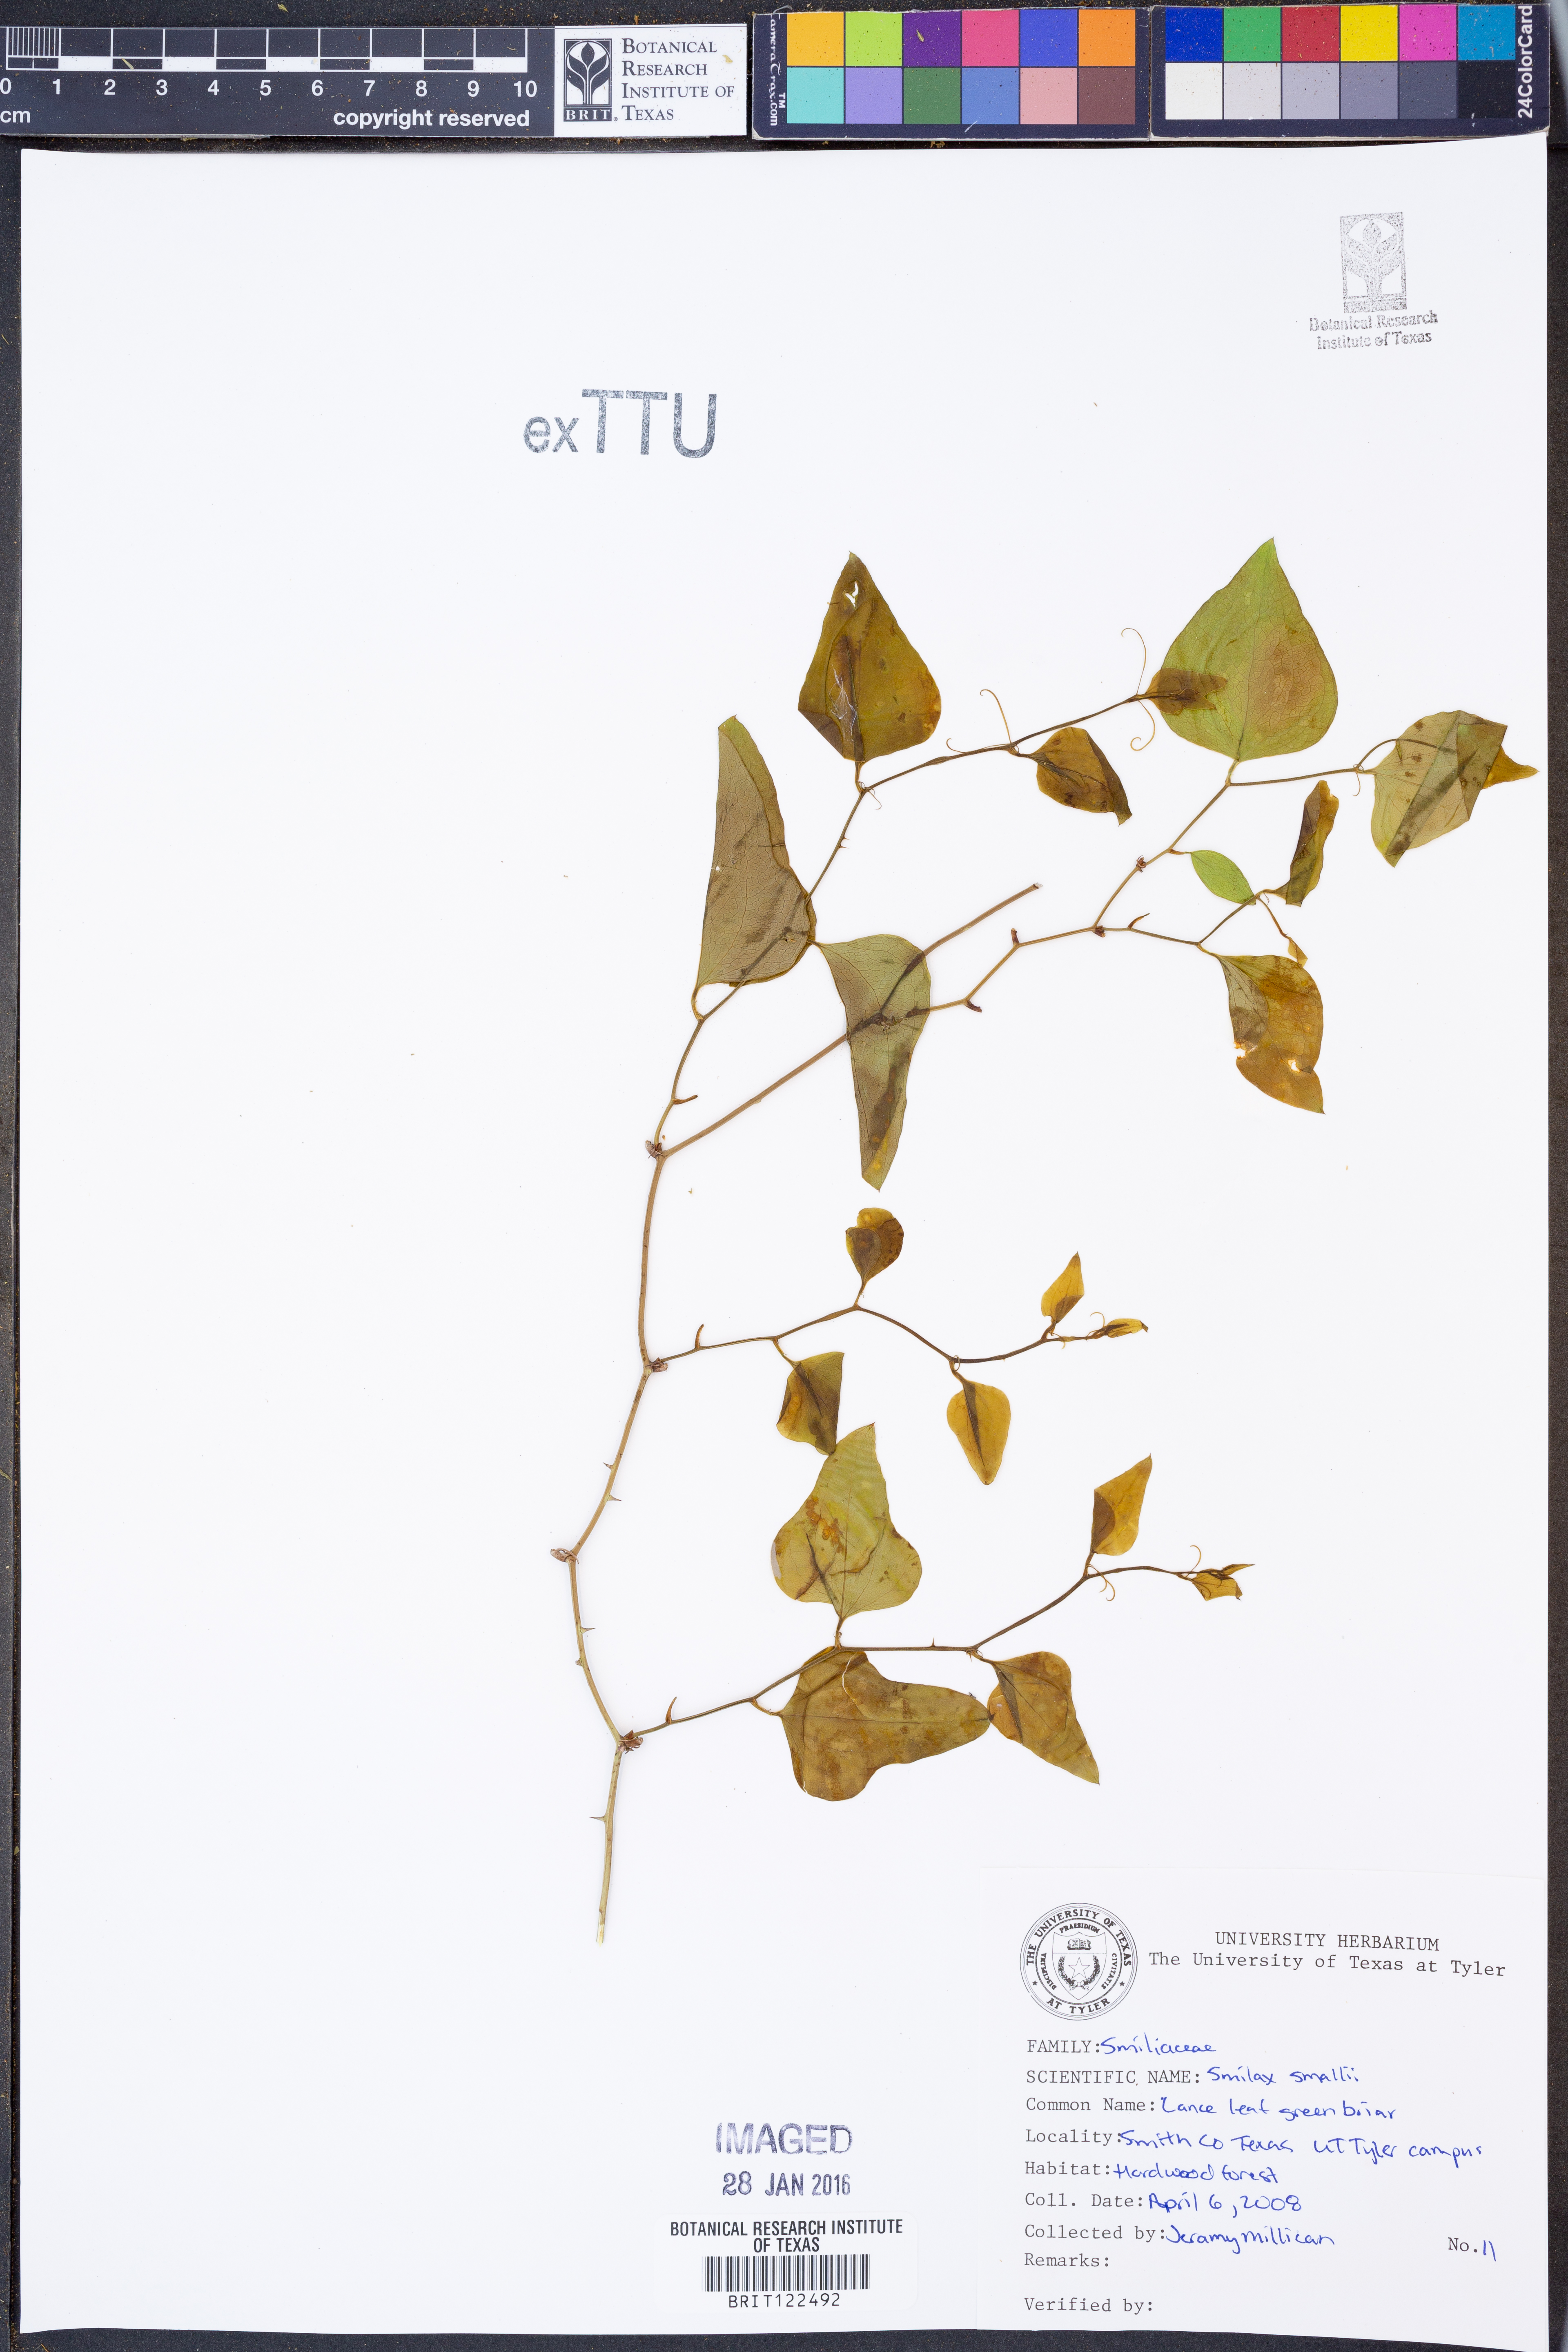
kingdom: Plantae
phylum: Tracheophyta
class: Liliopsida
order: Liliales
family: Smilacaceae
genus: Smilax
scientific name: Smilax maritima
